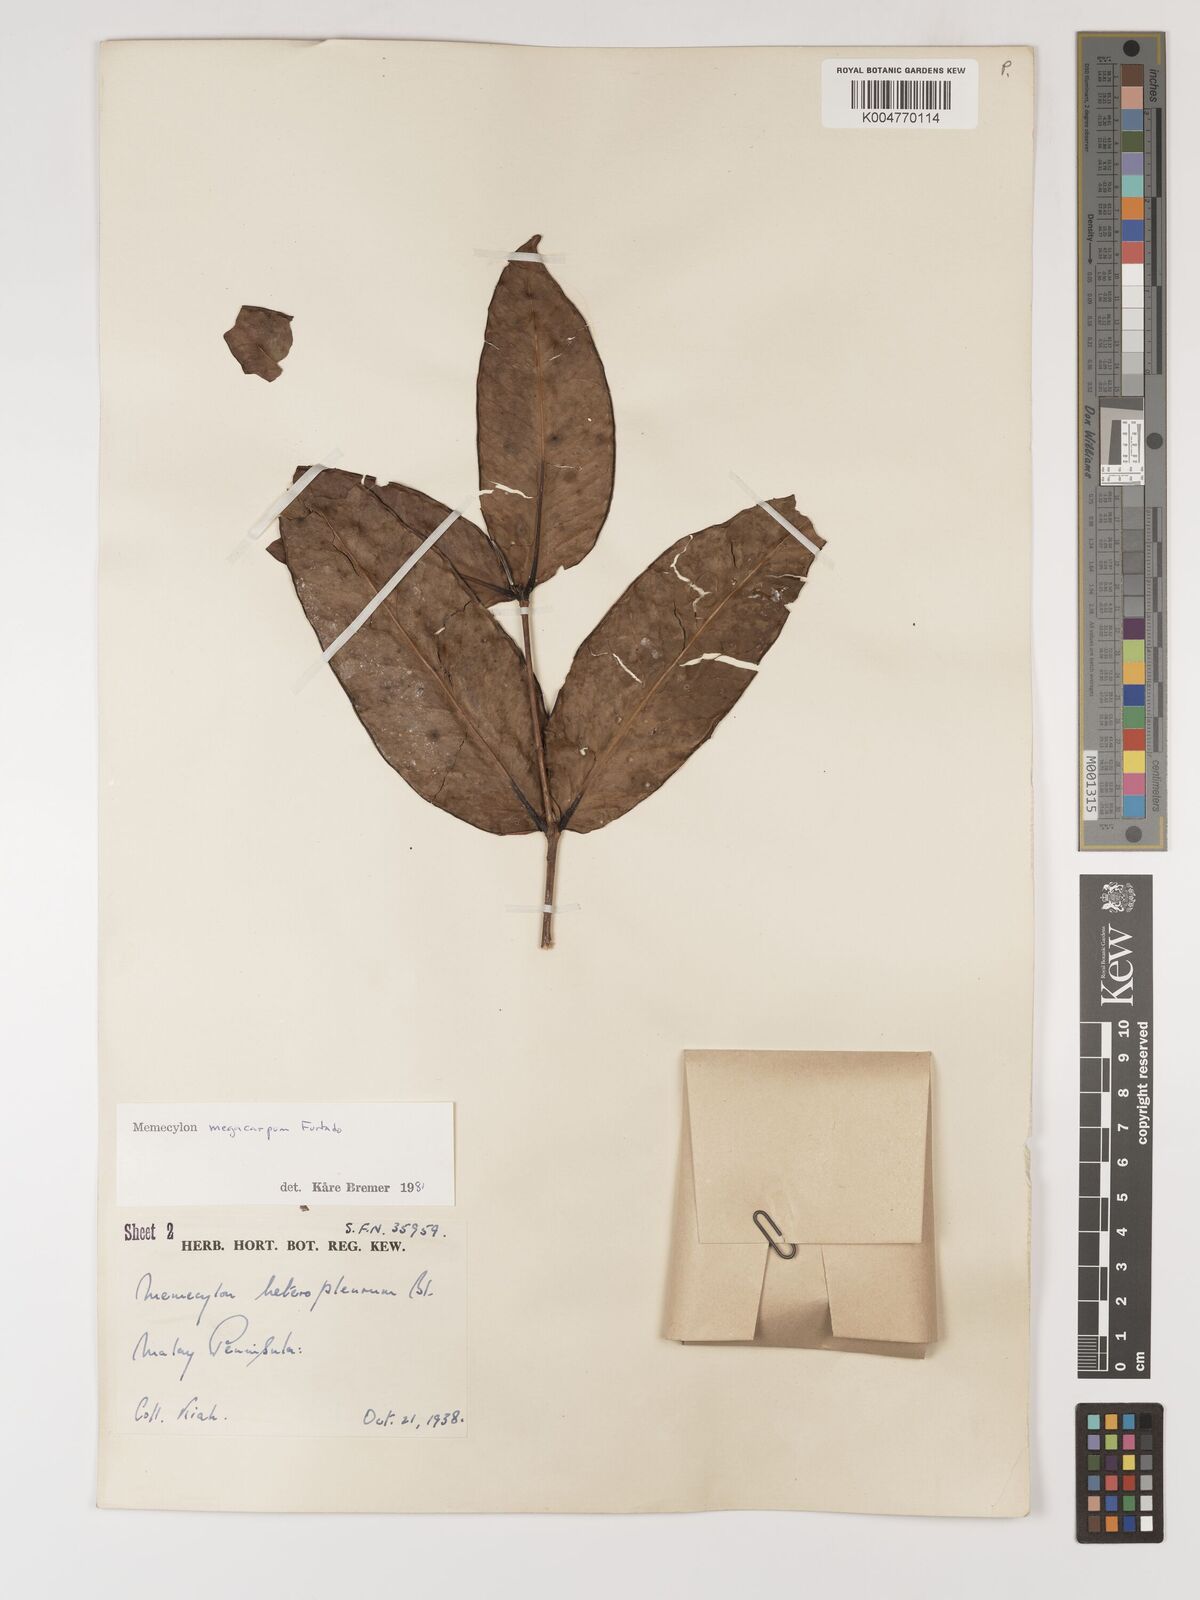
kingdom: Plantae
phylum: Tracheophyta
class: Magnoliopsida
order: Myrtales
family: Melastomataceae
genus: Memecylon
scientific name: Memecylon megacarpum
